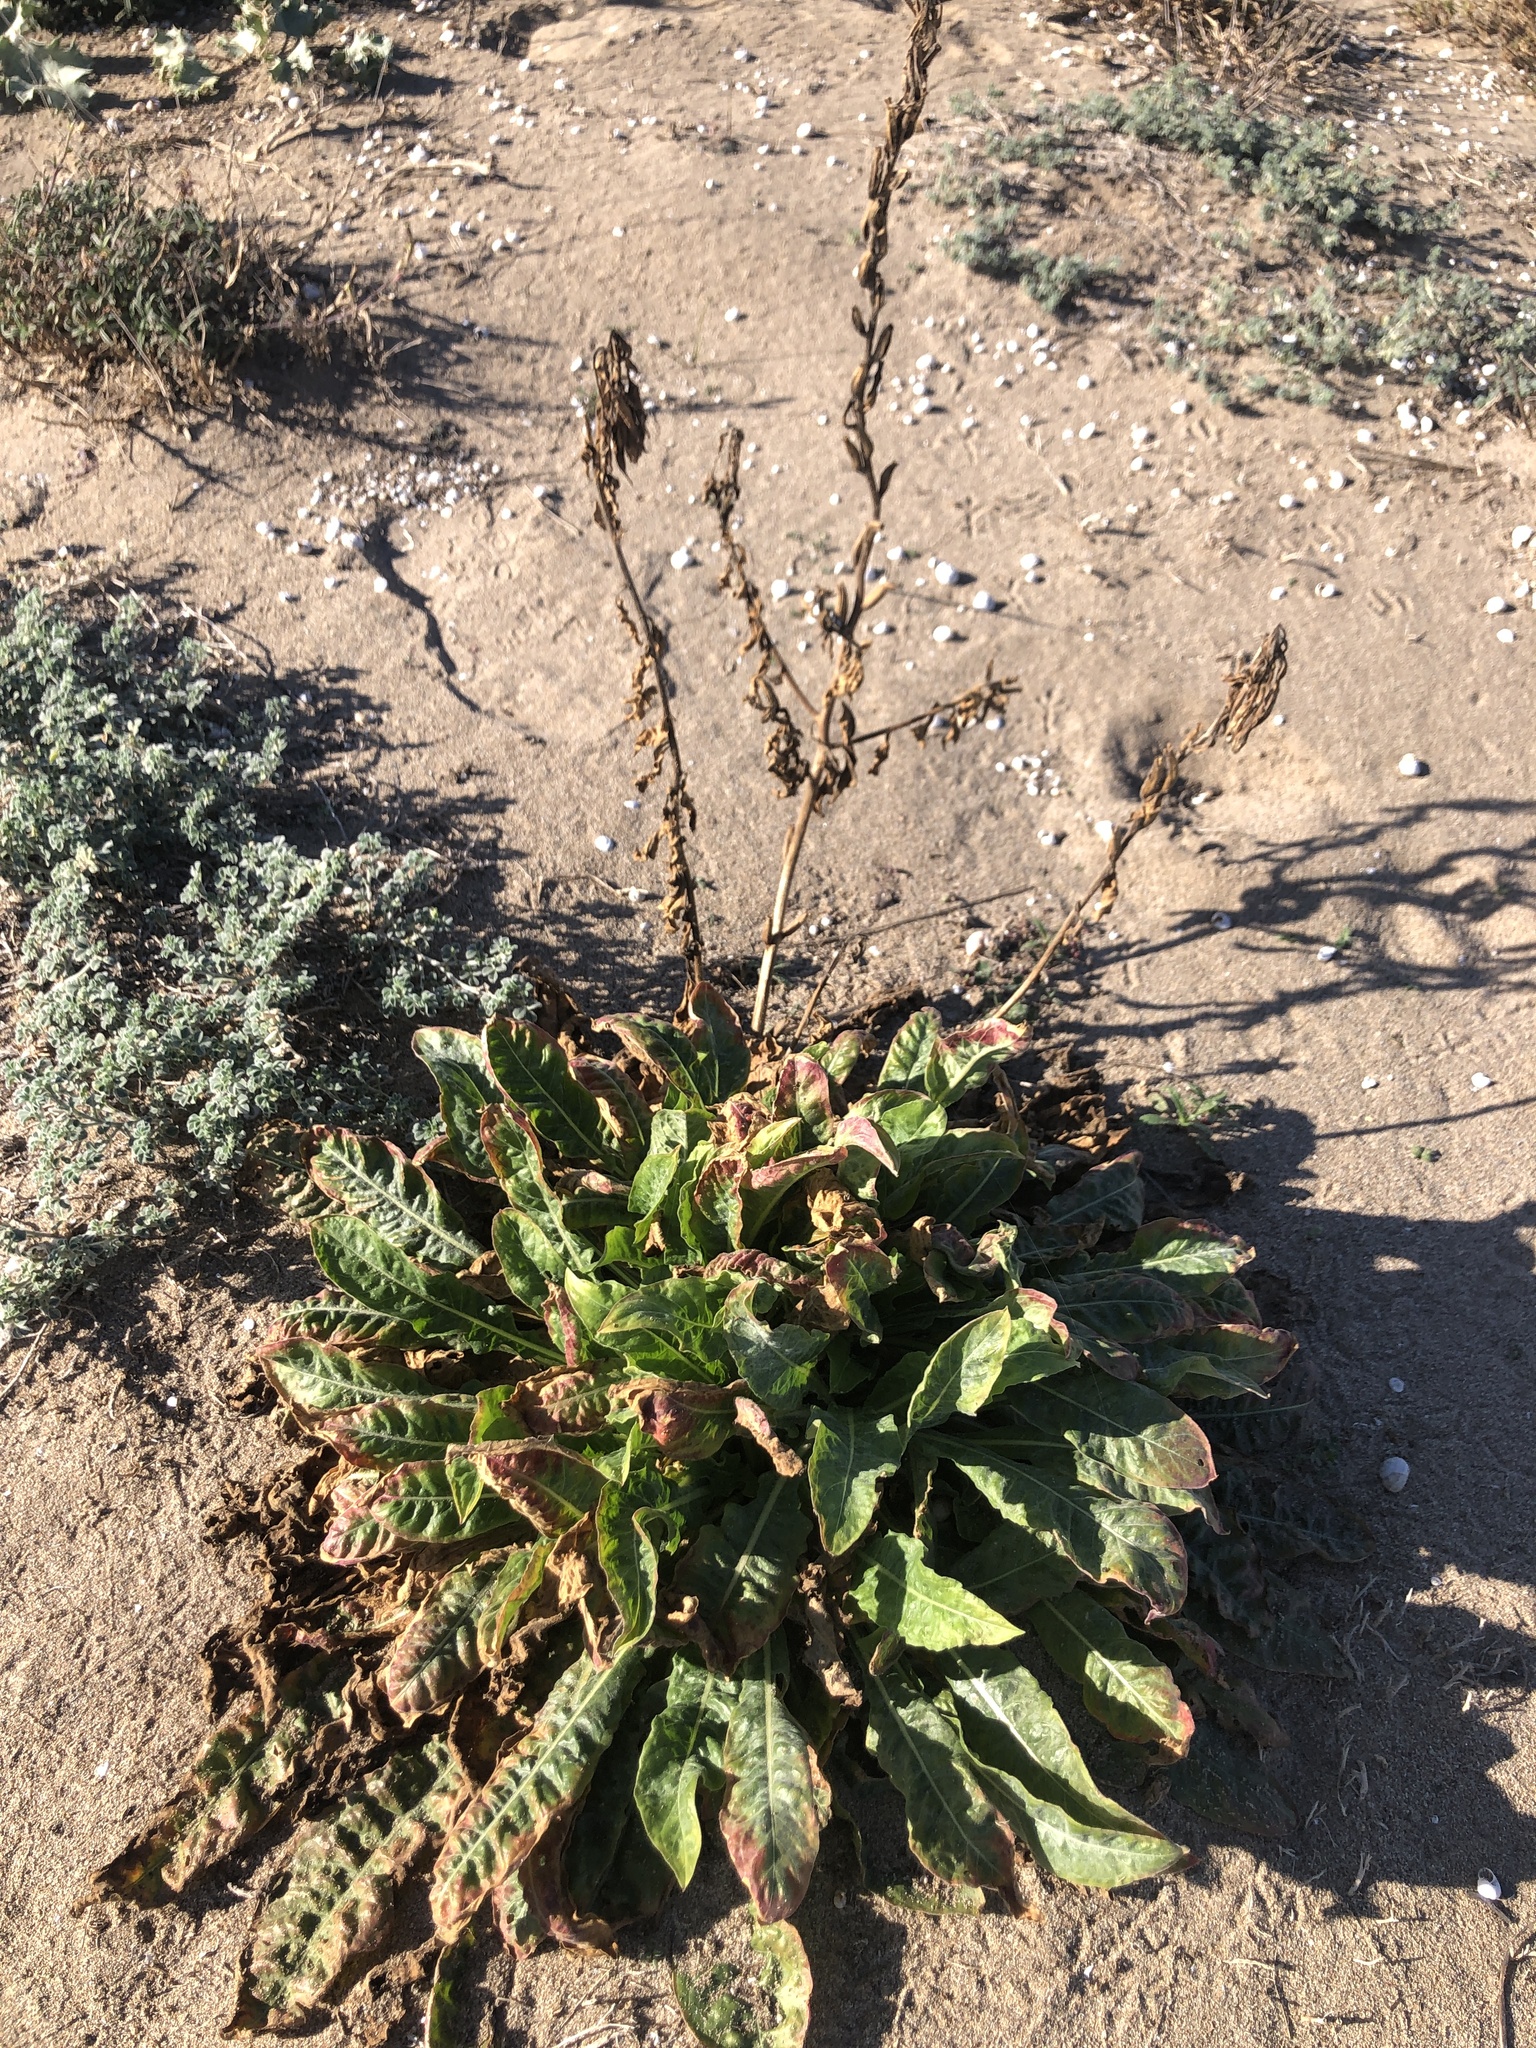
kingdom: Plantae
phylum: Tracheophyta
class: Magnoliopsida
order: Myrtales
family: Onagraceae
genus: Oenothera
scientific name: Oenothera glazioviana
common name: Large-flowered evening-primrose
